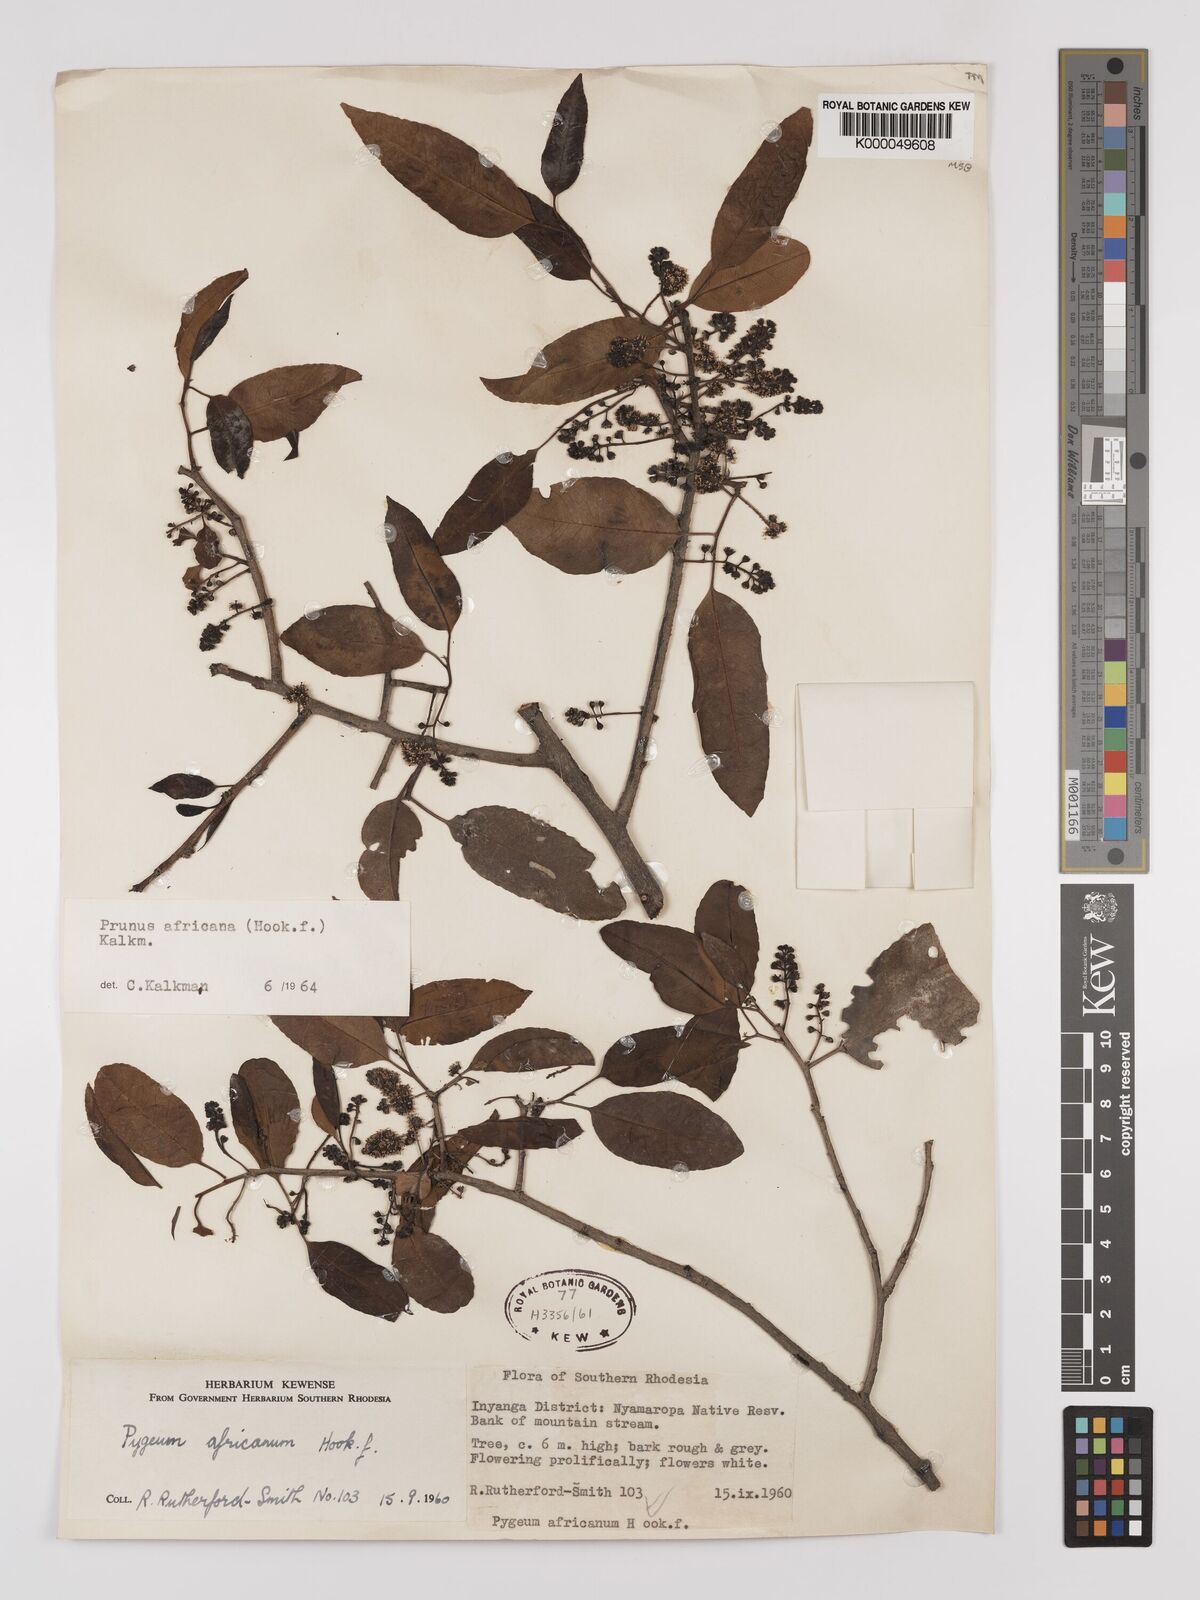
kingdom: Plantae
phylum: Tracheophyta
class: Magnoliopsida
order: Rosales
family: Rosaceae
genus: Prunus
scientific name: Prunus africana
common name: African cherry
